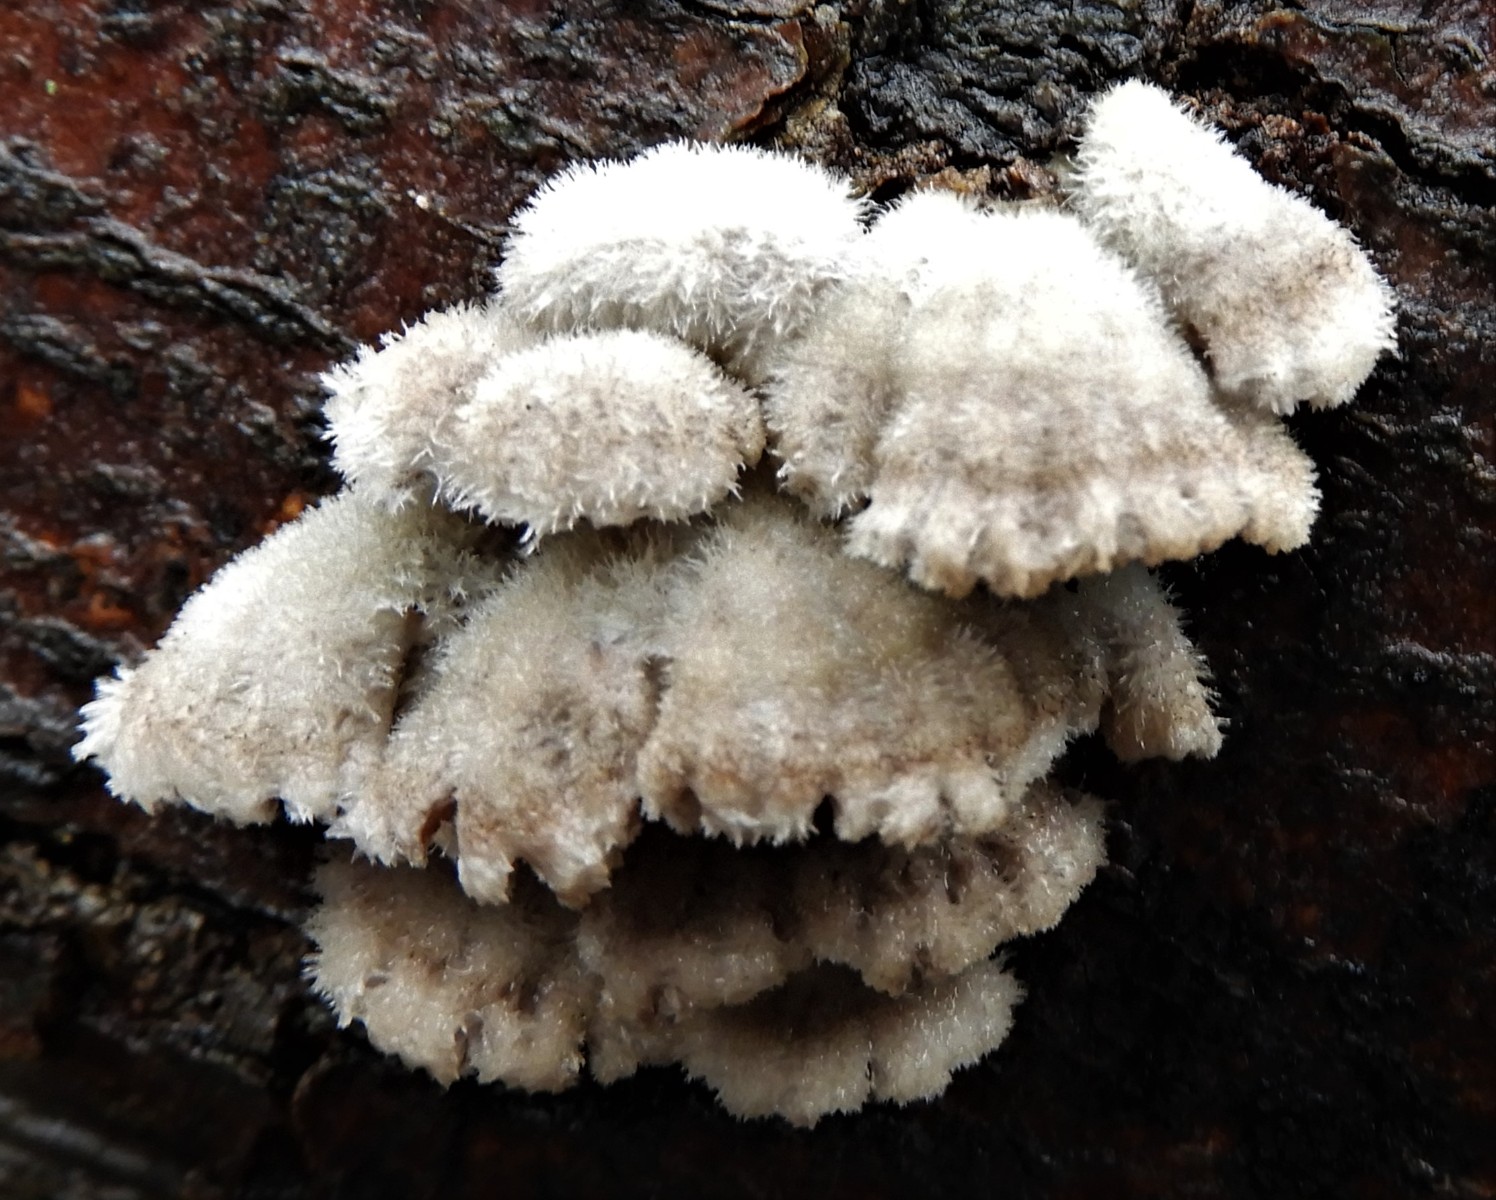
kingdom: Fungi
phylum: Basidiomycota
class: Agaricomycetes
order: Agaricales
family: Schizophyllaceae
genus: Schizophyllum
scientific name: Schizophyllum commune
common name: kløvblad
